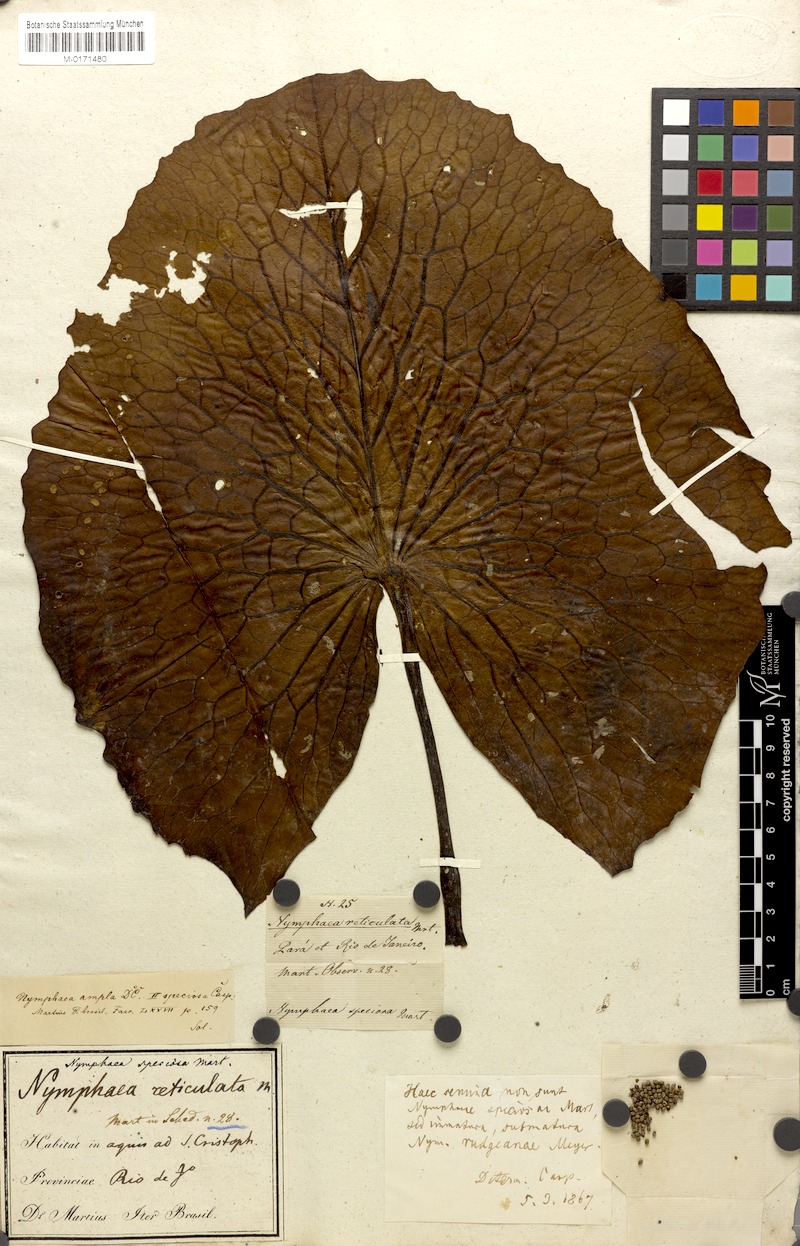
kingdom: Plantae
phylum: Tracheophyta
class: Magnoliopsida
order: Nymphaeales
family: Nymphaeaceae
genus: Nymphaea
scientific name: Nymphaea pulchella
